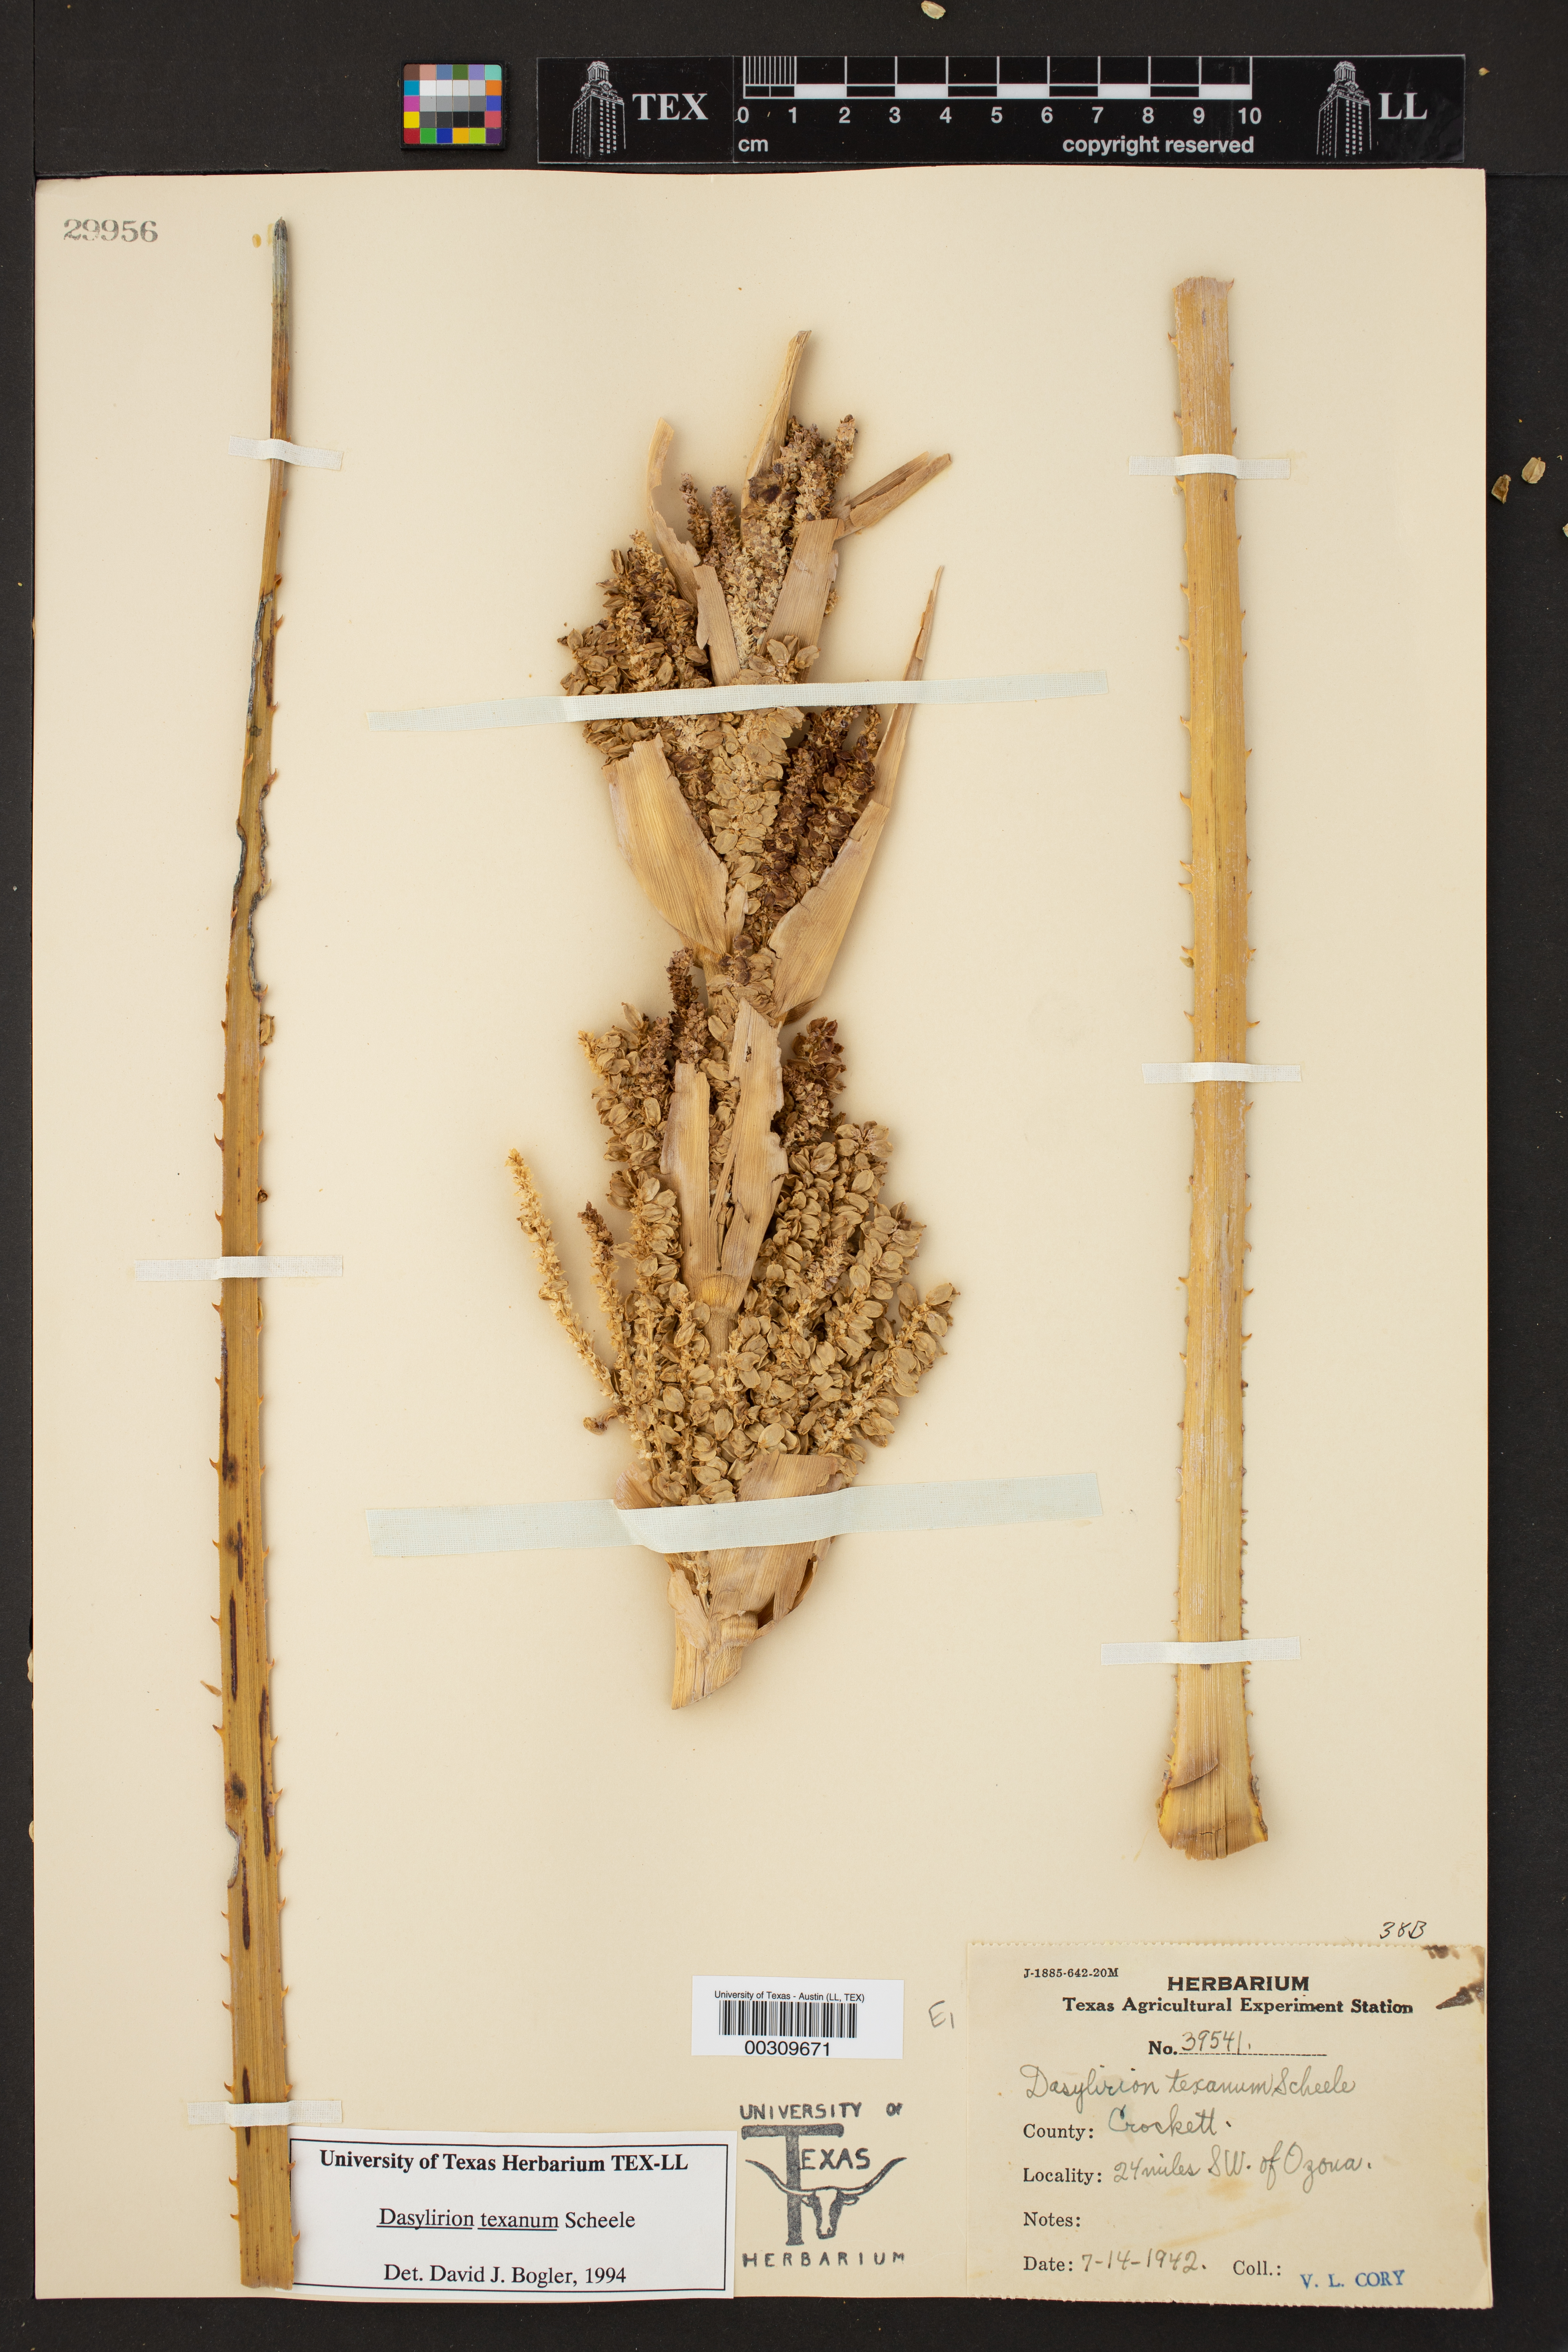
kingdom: Plantae
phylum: Tracheophyta
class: Liliopsida
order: Asparagales
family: Asparagaceae
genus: Dasylirion
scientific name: Dasylirion texanum
